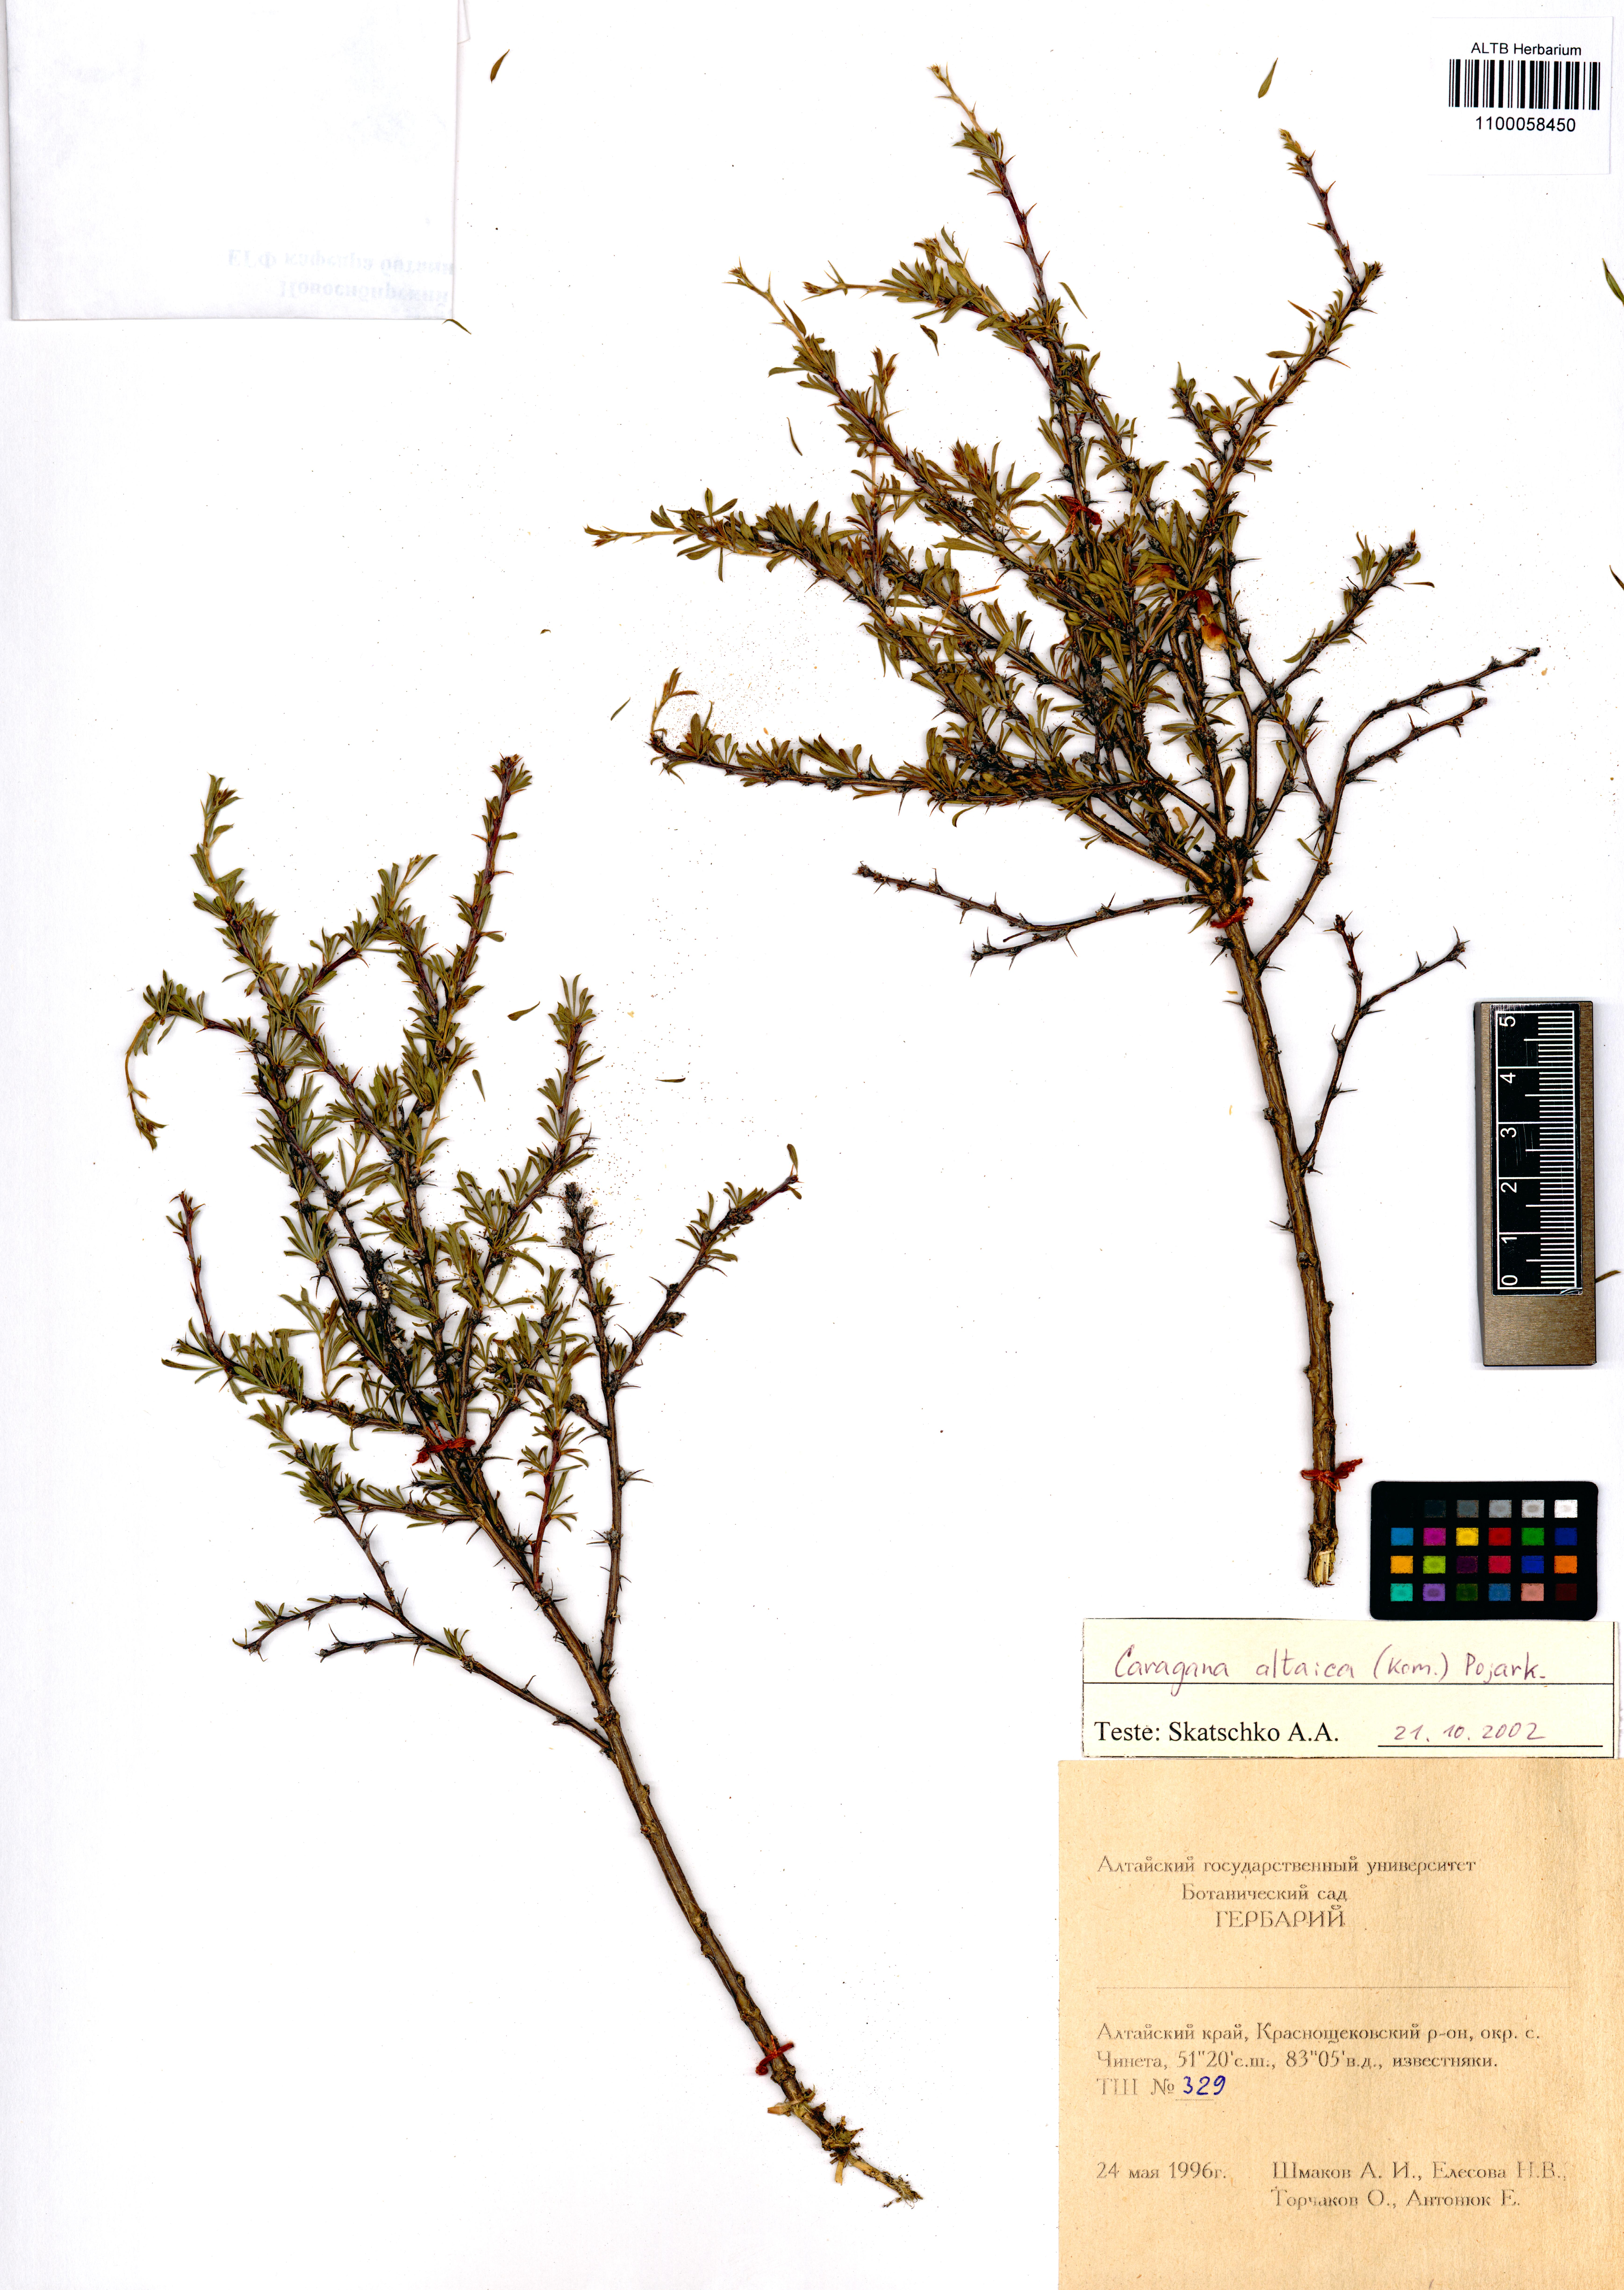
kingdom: Plantae
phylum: Tracheophyta
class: Magnoliopsida
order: Fabales
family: Fabaceae
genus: Caragana
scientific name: Caragana pygmaea
